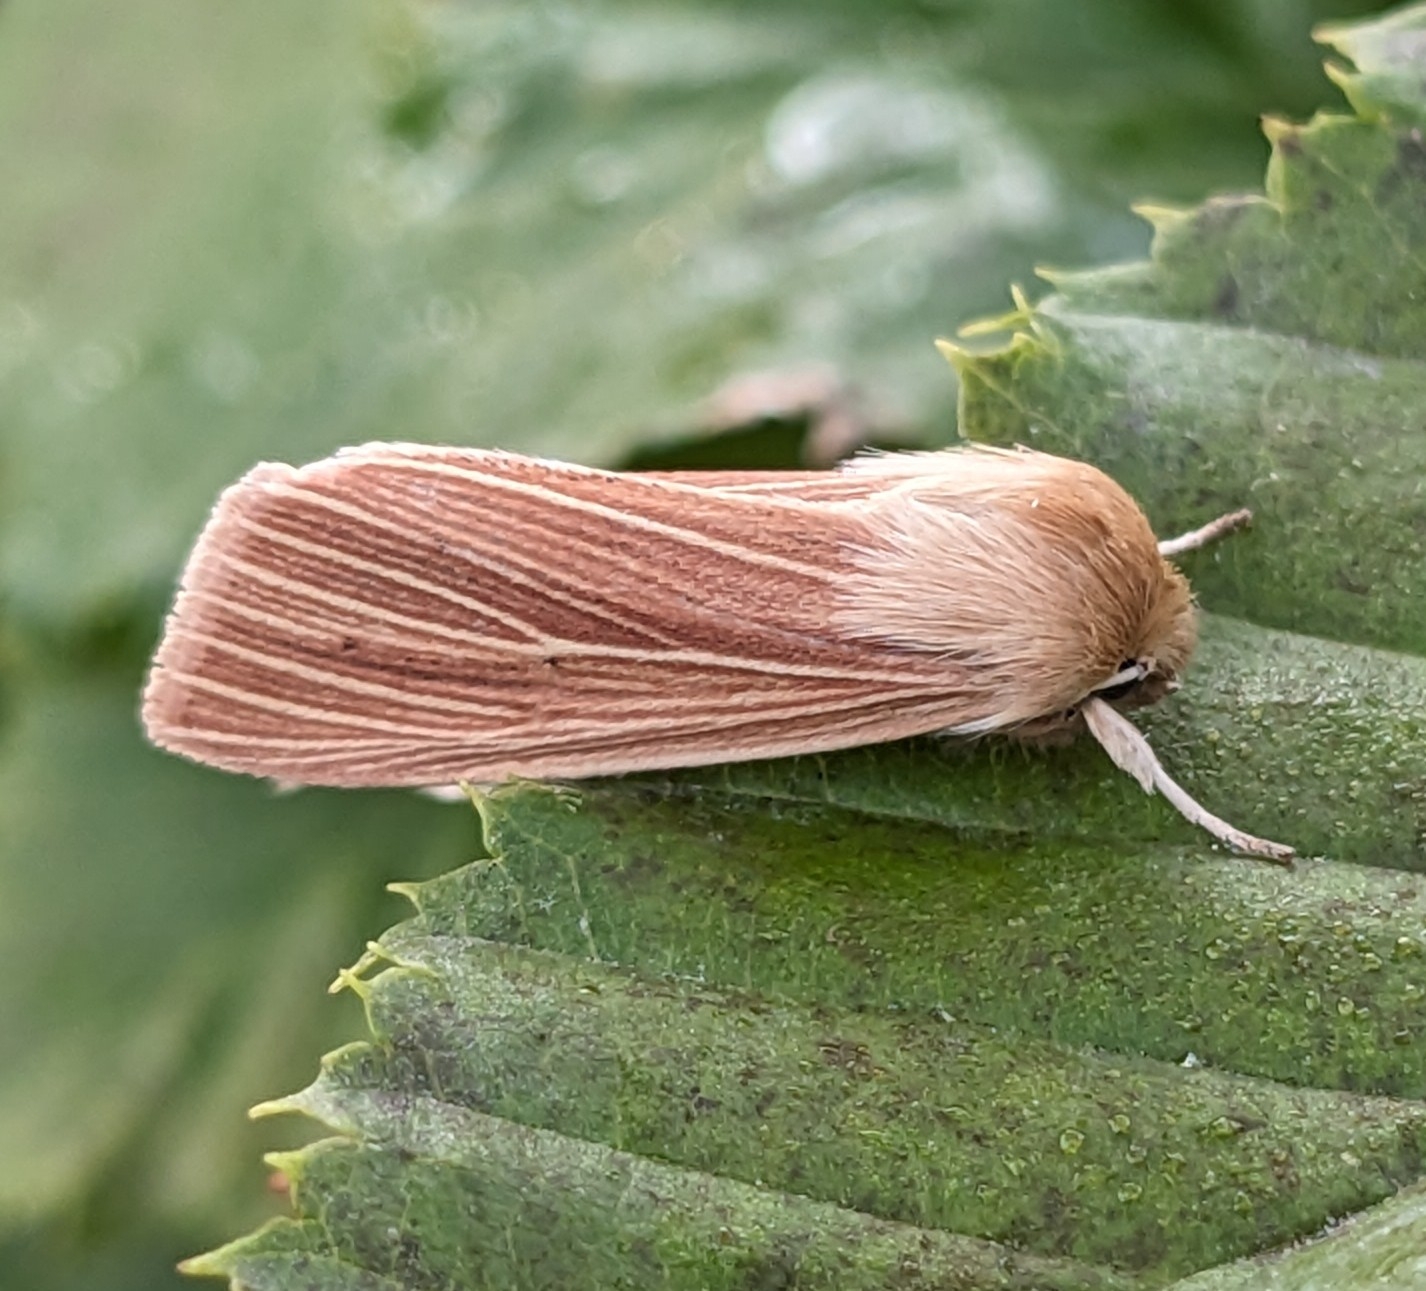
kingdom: Animalia
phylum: Arthropoda
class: Insecta
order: Lepidoptera
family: Noctuidae
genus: Mythimna
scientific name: Mythimna pallens
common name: Halmugle
